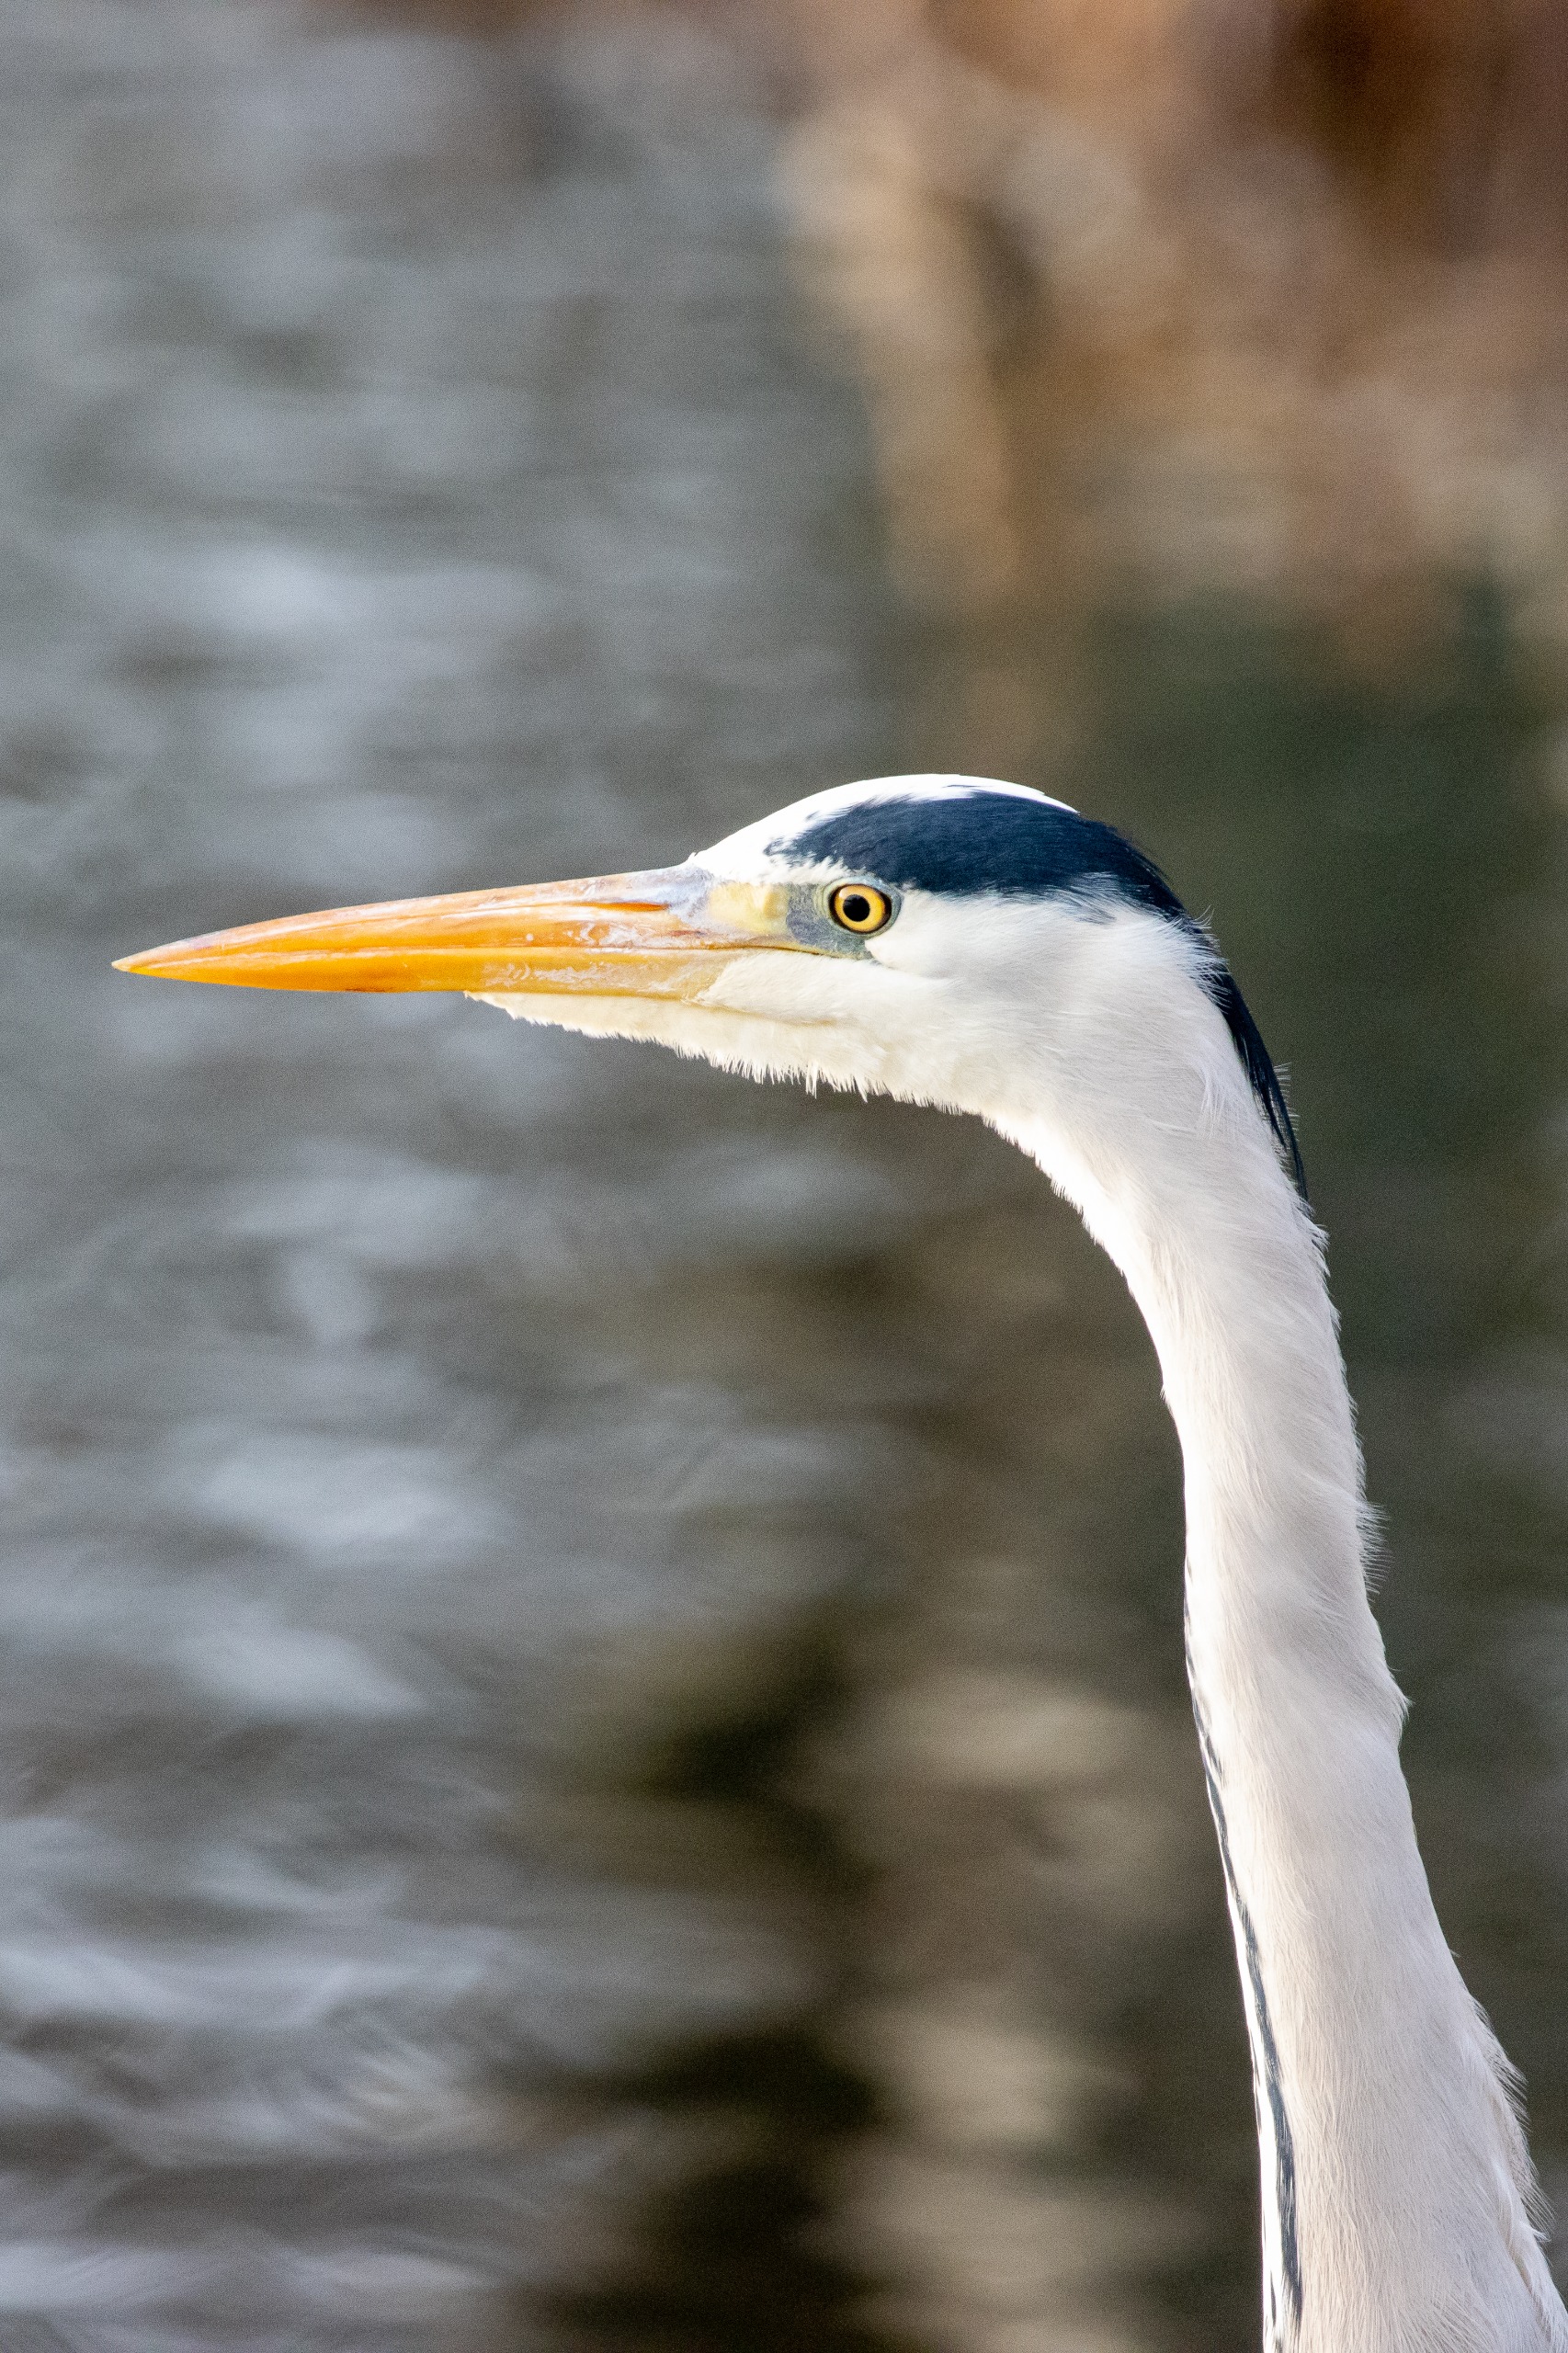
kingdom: Animalia
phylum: Chordata
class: Aves
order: Pelecaniformes
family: Ardeidae
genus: Ardea
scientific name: Ardea cinerea
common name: Fiskehejre
